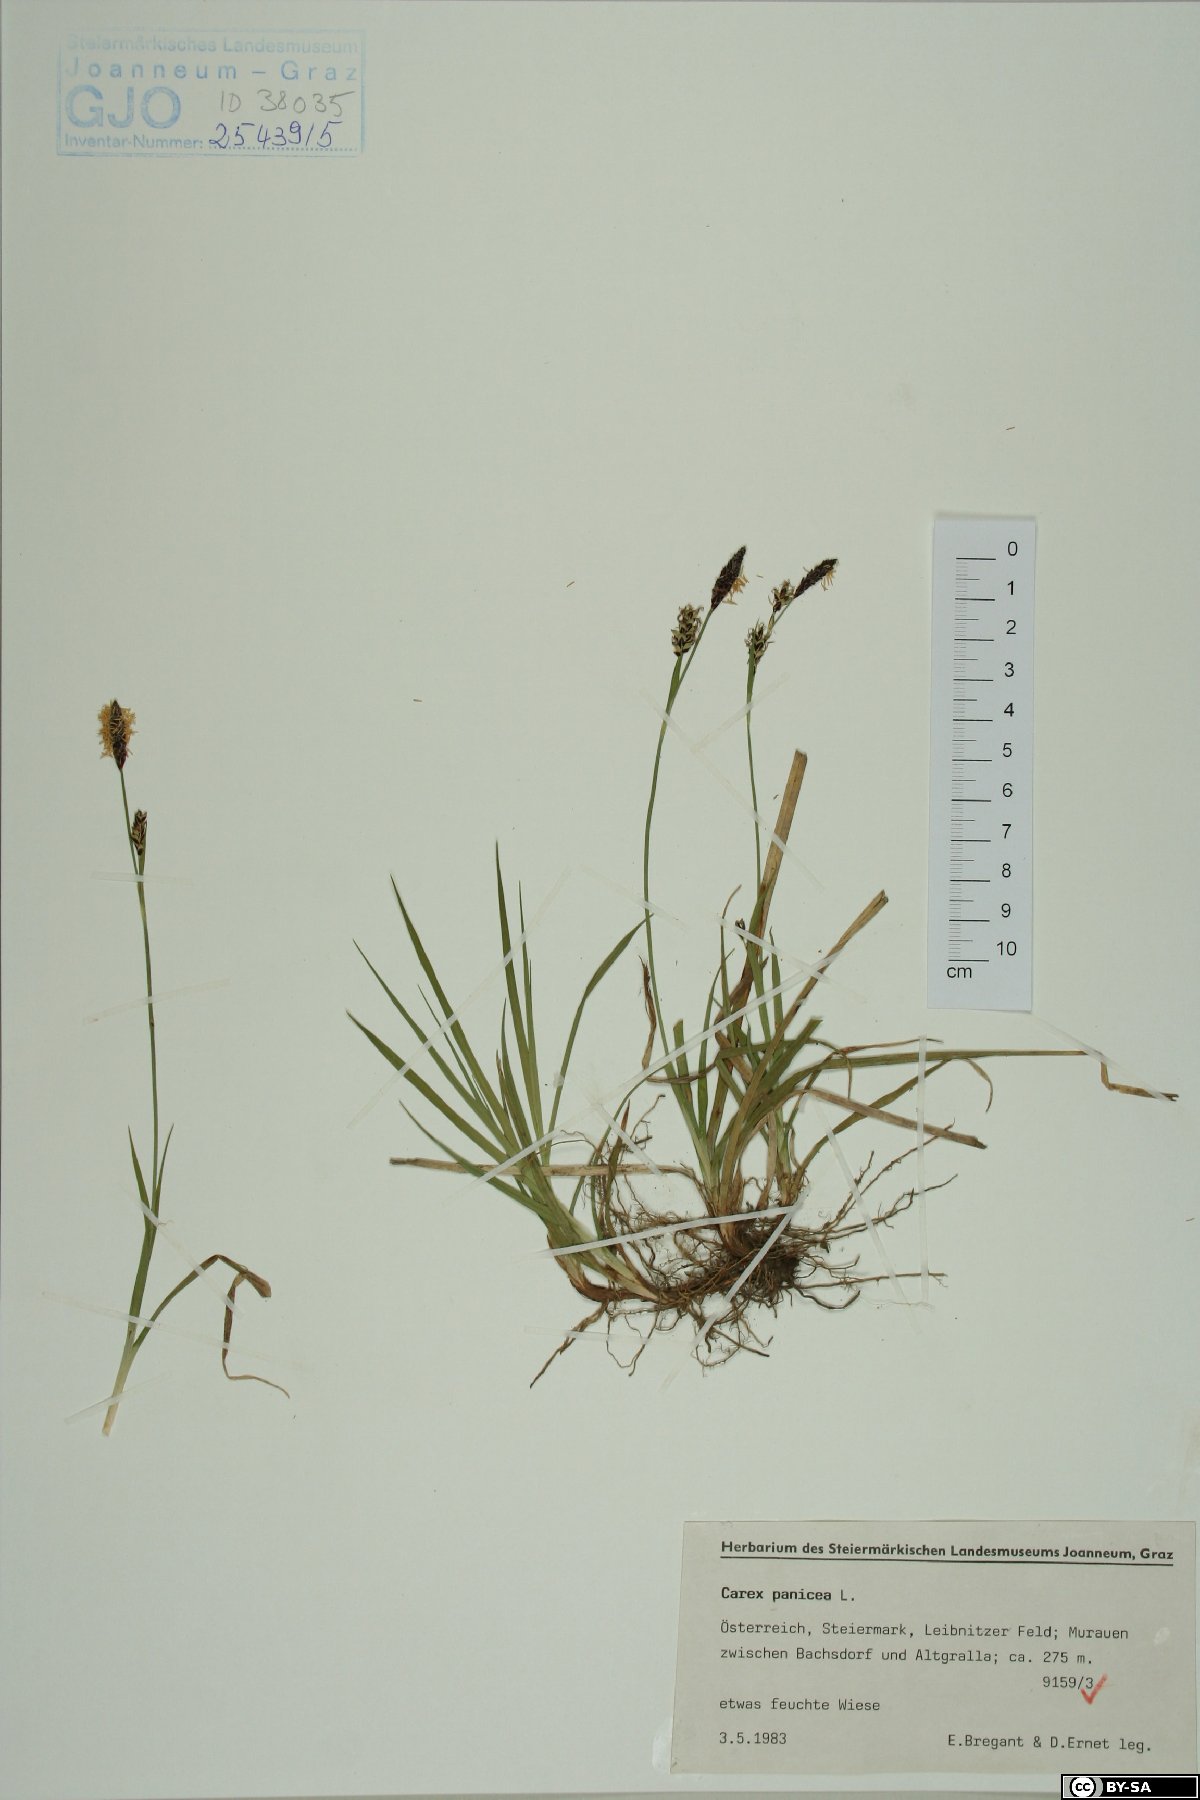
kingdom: Plantae
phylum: Tracheophyta
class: Liliopsida
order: Poales
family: Cyperaceae
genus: Carex
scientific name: Carex panicea
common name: Carnation sedge
